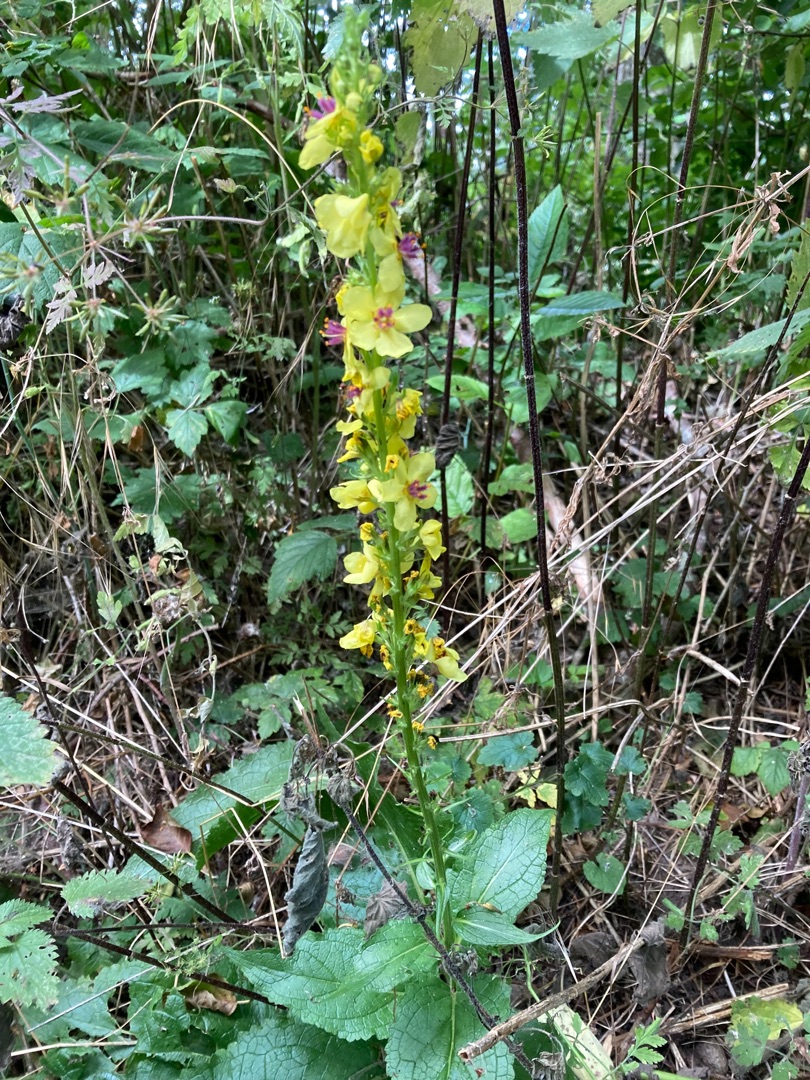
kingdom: Plantae
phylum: Tracheophyta
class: Magnoliopsida
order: Lamiales
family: Scrophulariaceae
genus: Verbascum
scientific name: Verbascum nigrum
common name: Mørk kongelys
